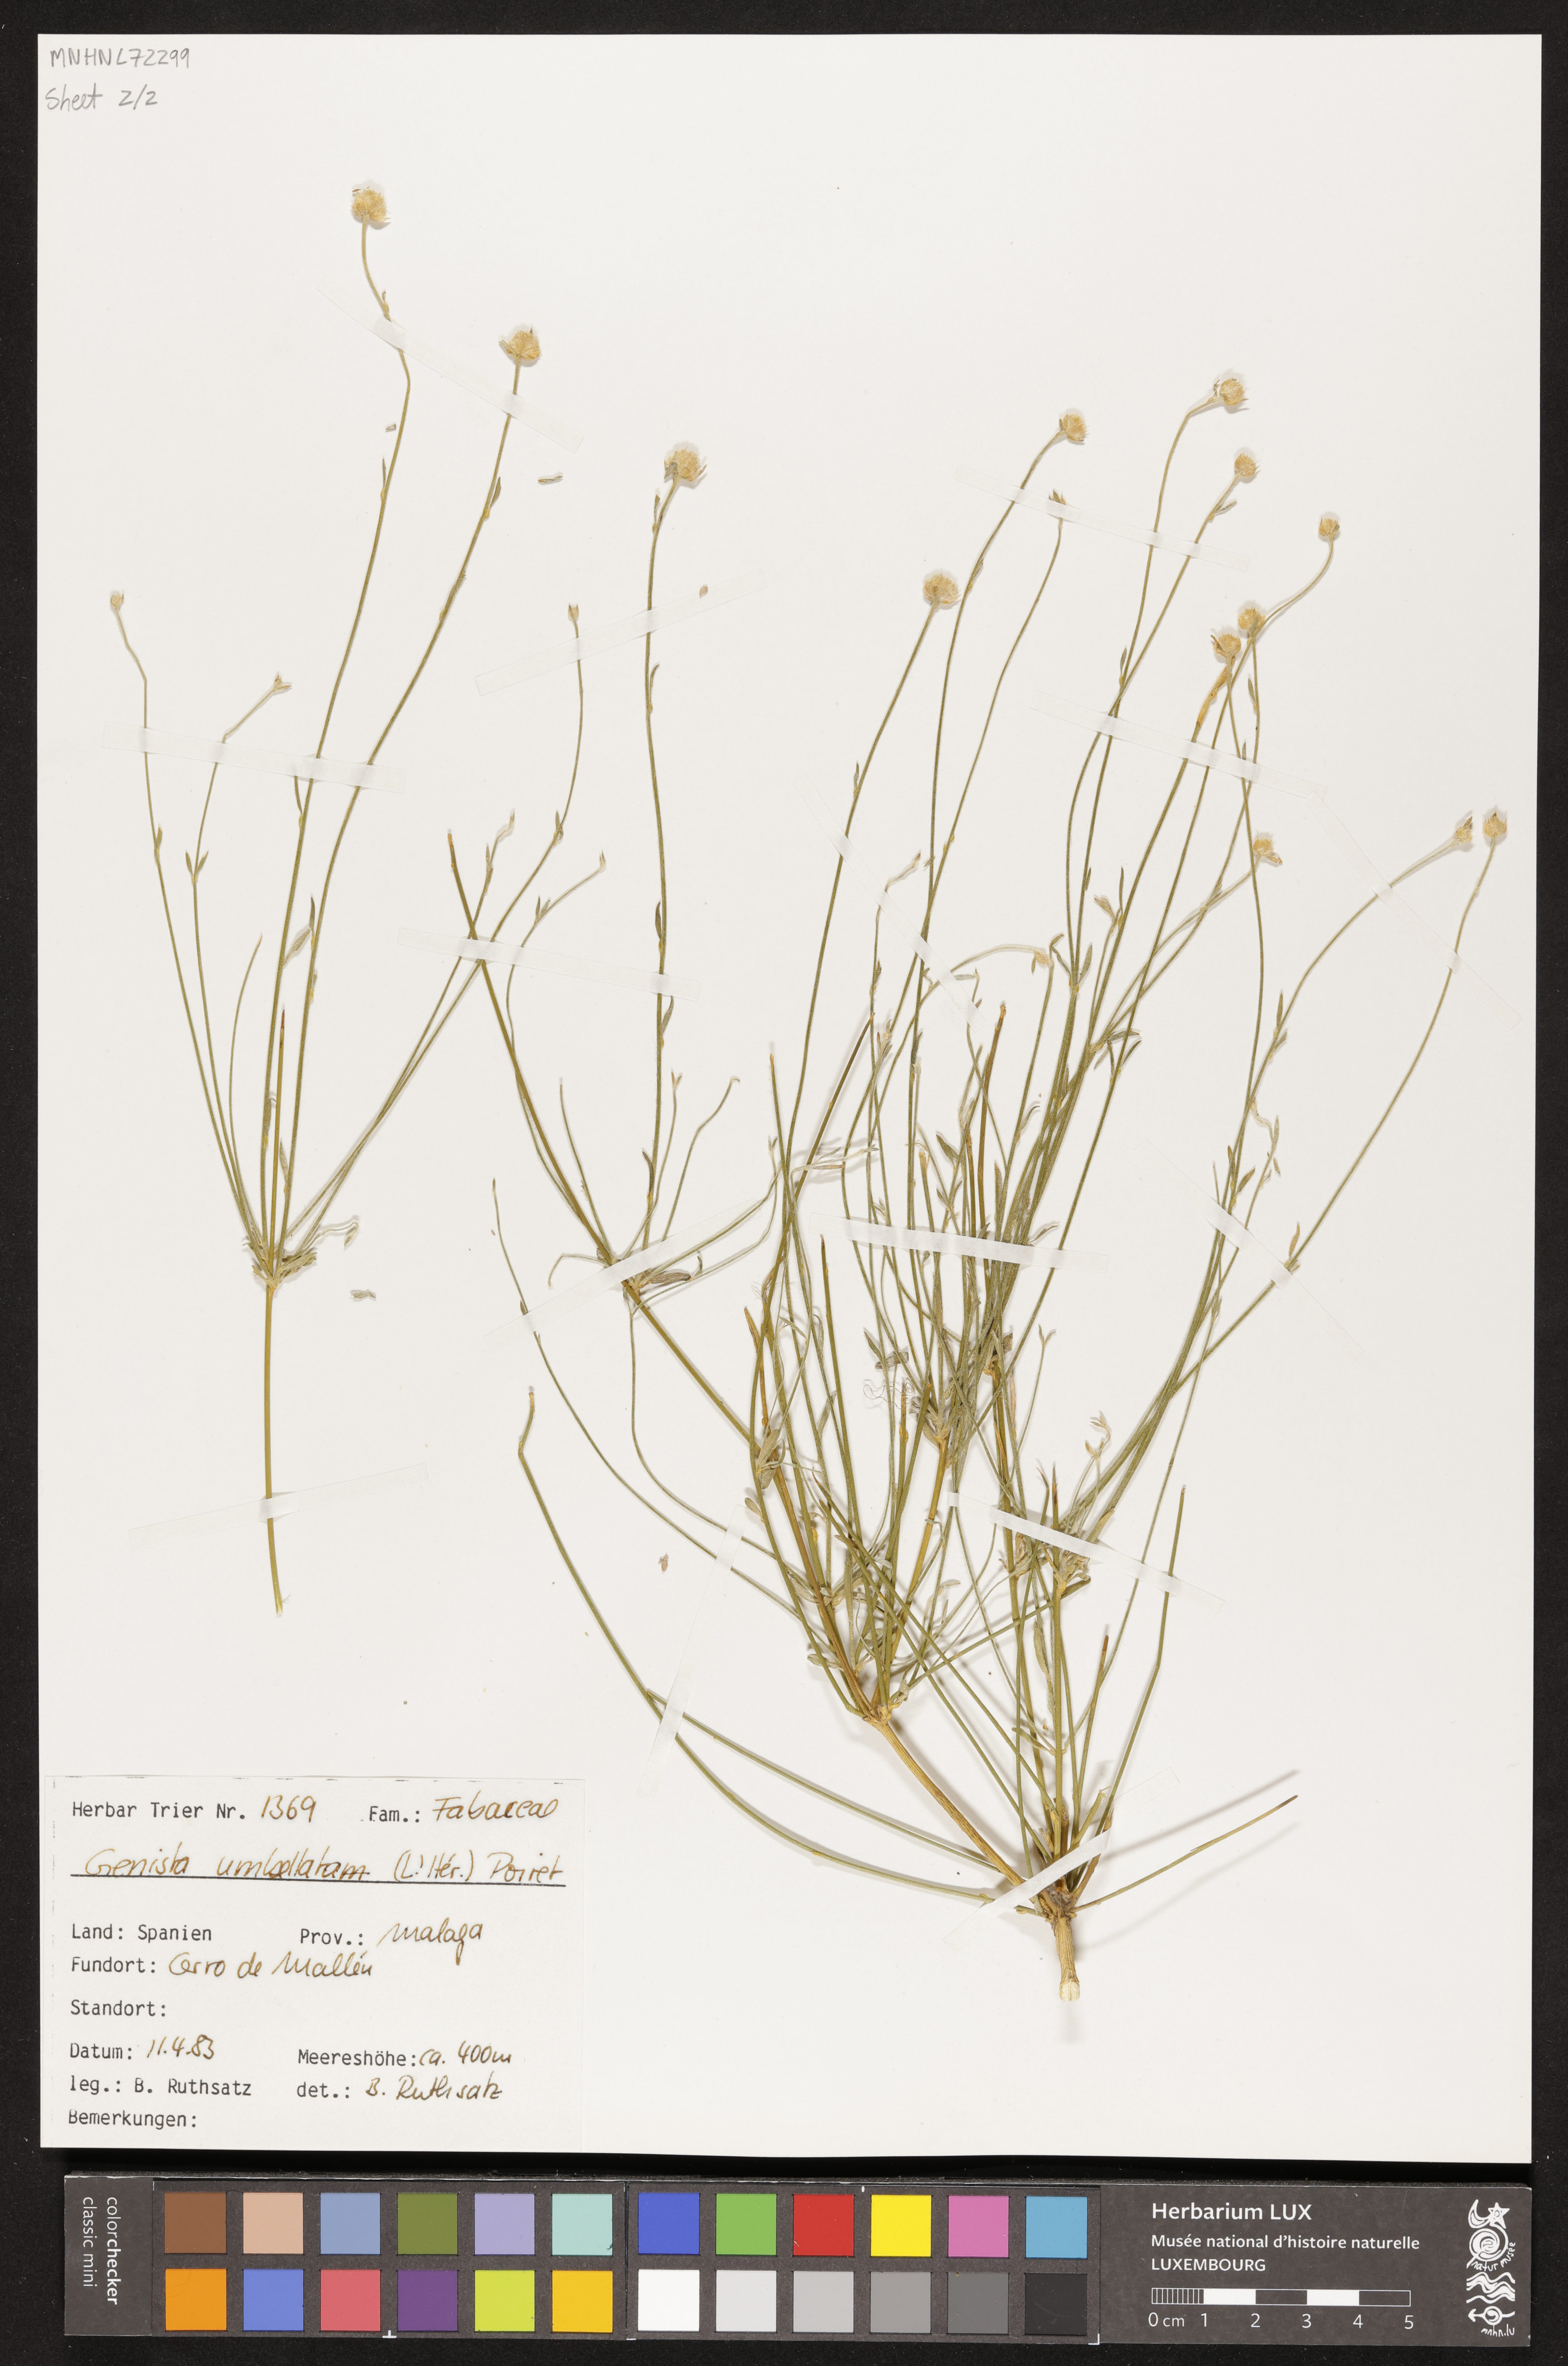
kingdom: Plantae
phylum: Tracheophyta
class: Magnoliopsida
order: Fabales
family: Fabaceae
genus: Genista
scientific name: Genista umbellata
